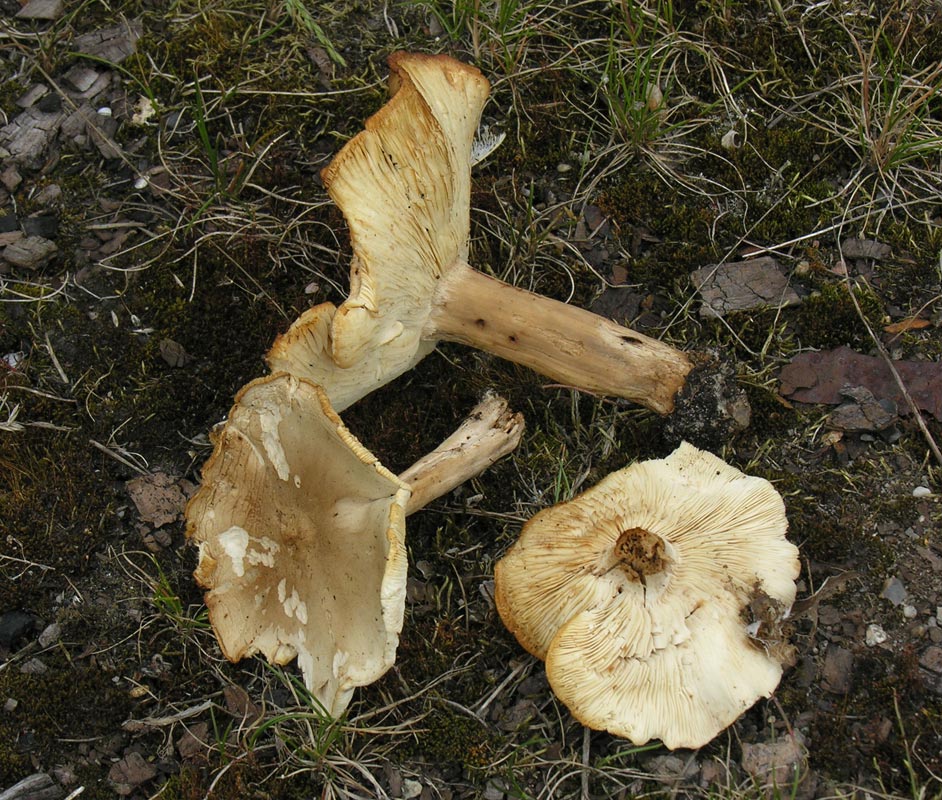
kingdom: Fungi
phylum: Basidiomycota
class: Agaricomycetes
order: Agaricales
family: Tricholomataceae
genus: Melanoleuca
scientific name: Melanoleuca cognata
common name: gyldengrå munkehat
